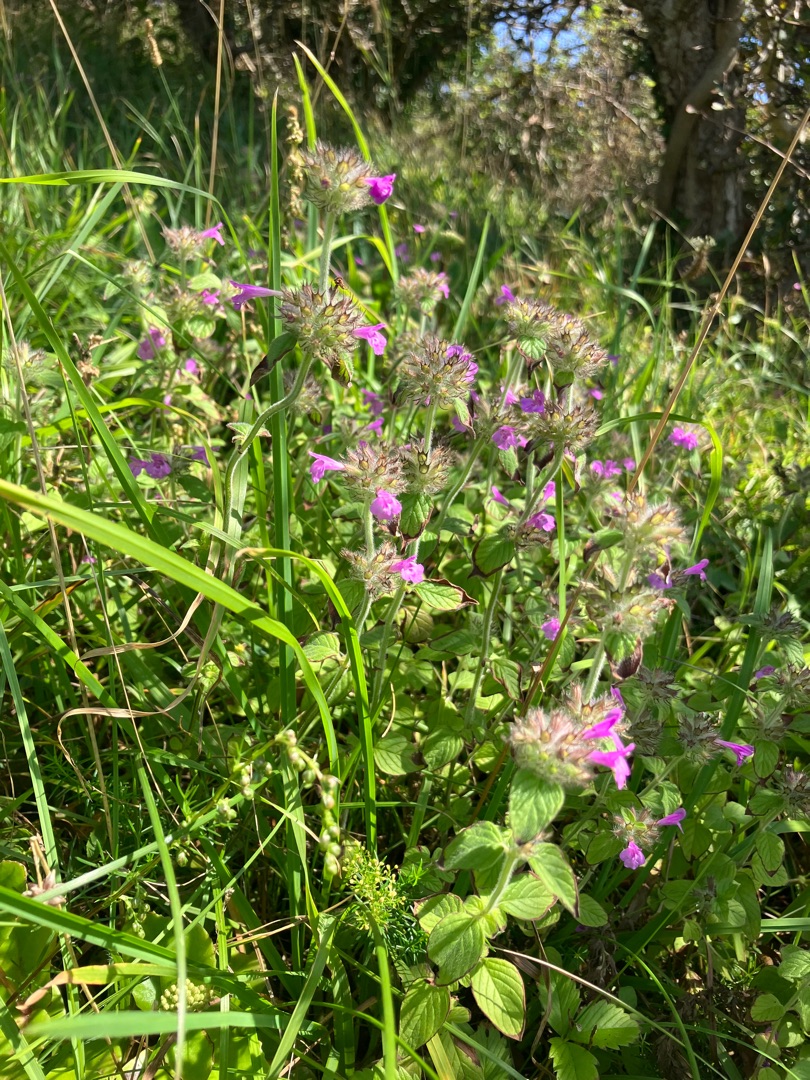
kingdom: Plantae
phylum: Tracheophyta
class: Magnoliopsida
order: Lamiales
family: Lamiaceae
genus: Clinopodium
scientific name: Clinopodium vulgare
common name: Kransbørste
